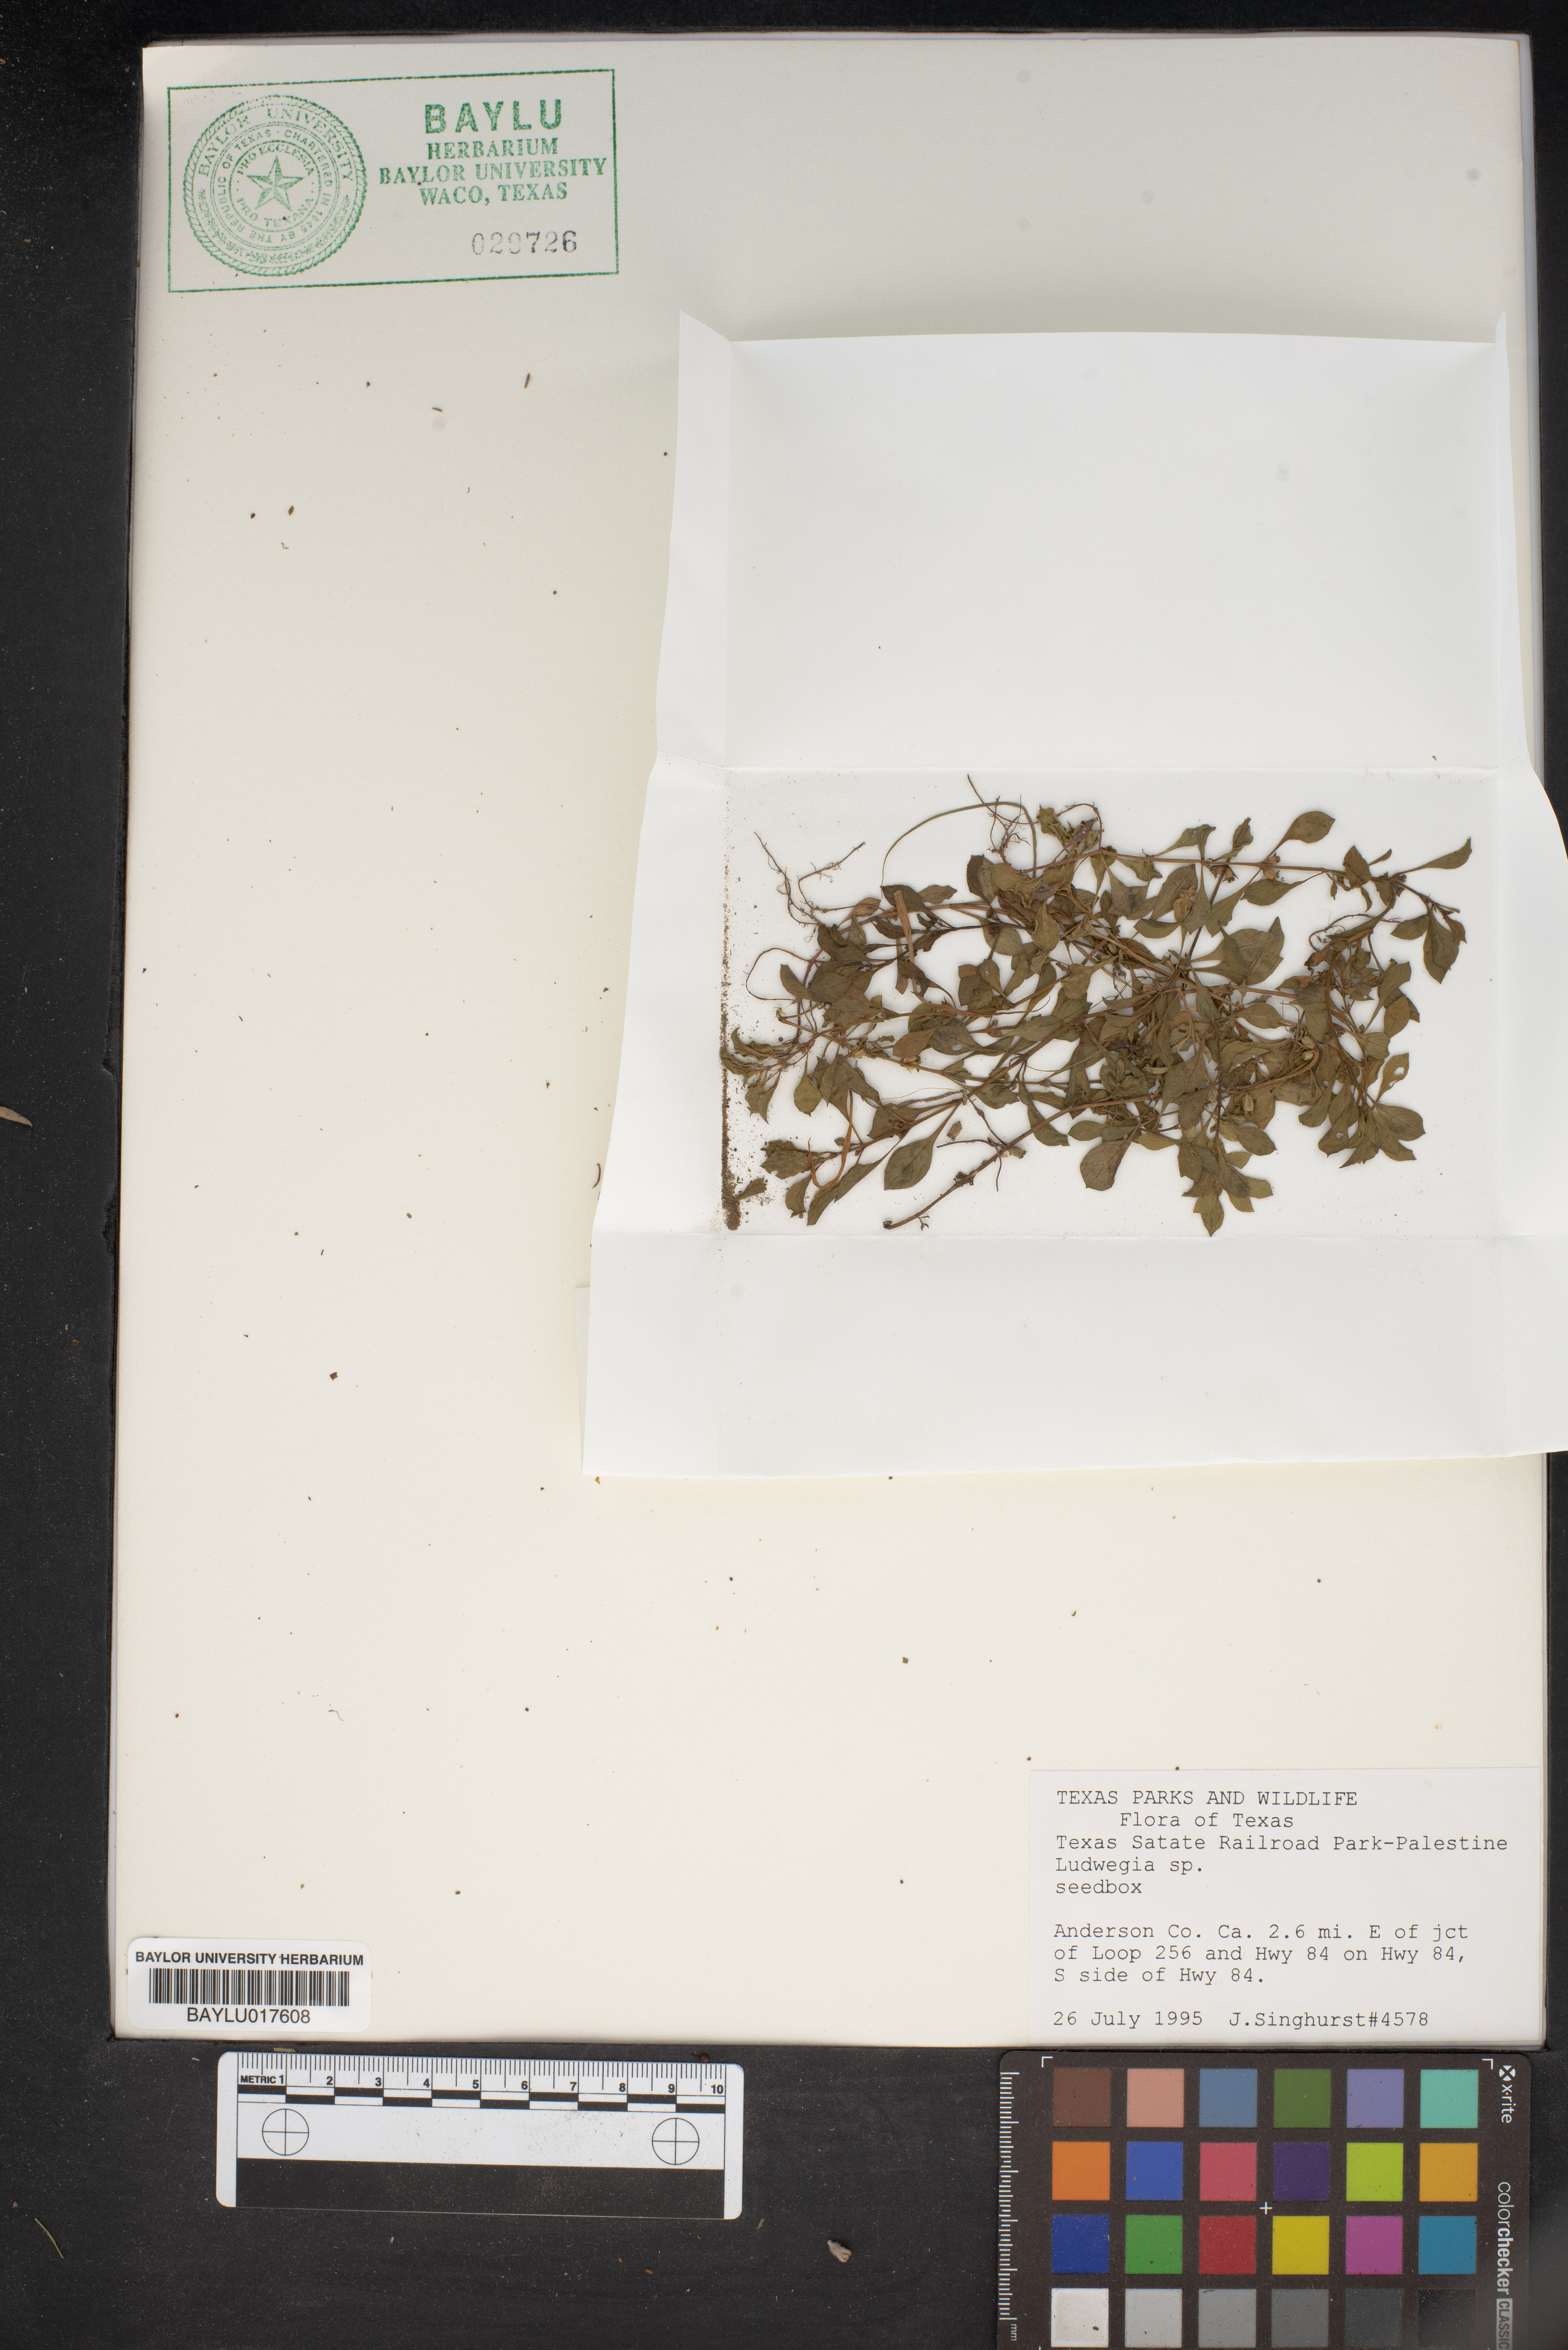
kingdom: Plantae
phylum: Tracheophyta
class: Magnoliopsida
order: Myrtales
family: Onagraceae
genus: Ludwigia
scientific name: Ludwigia
